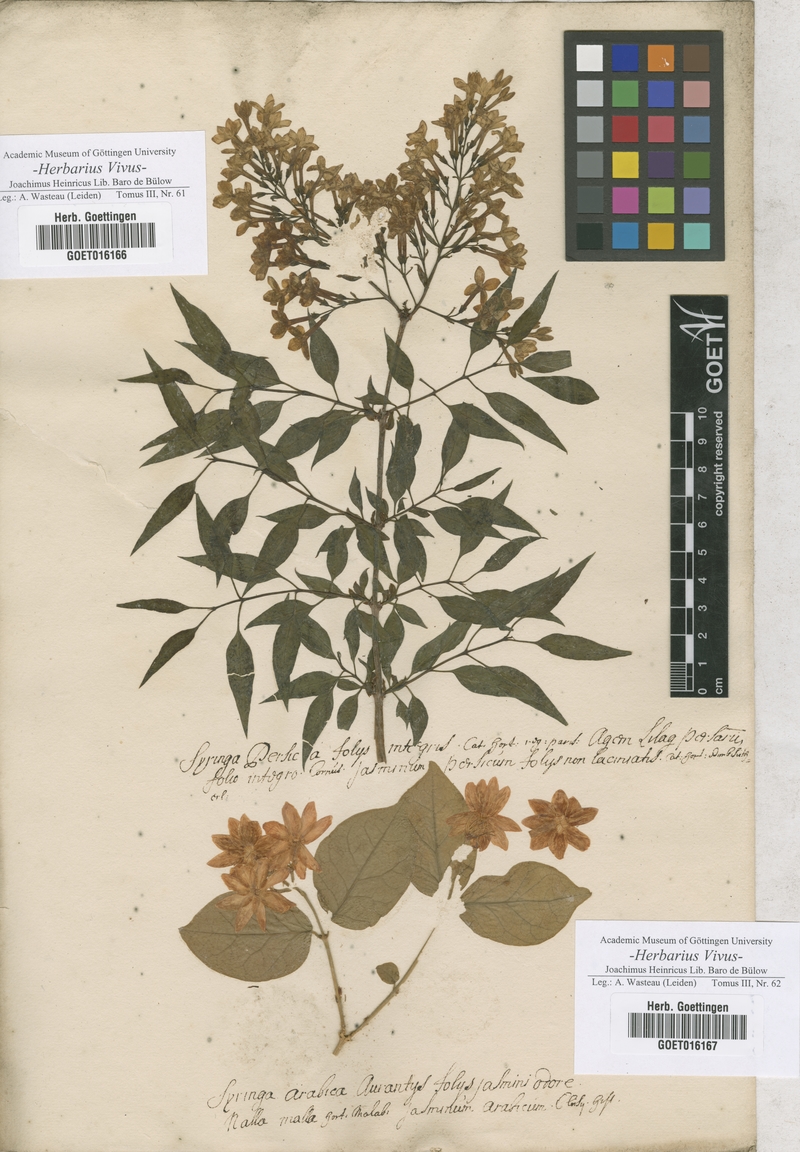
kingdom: Plantae
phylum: Tracheophyta
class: Magnoliopsida
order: Lamiales
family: Oleaceae
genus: Syringa
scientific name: Syringa persica
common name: Persian lilac
